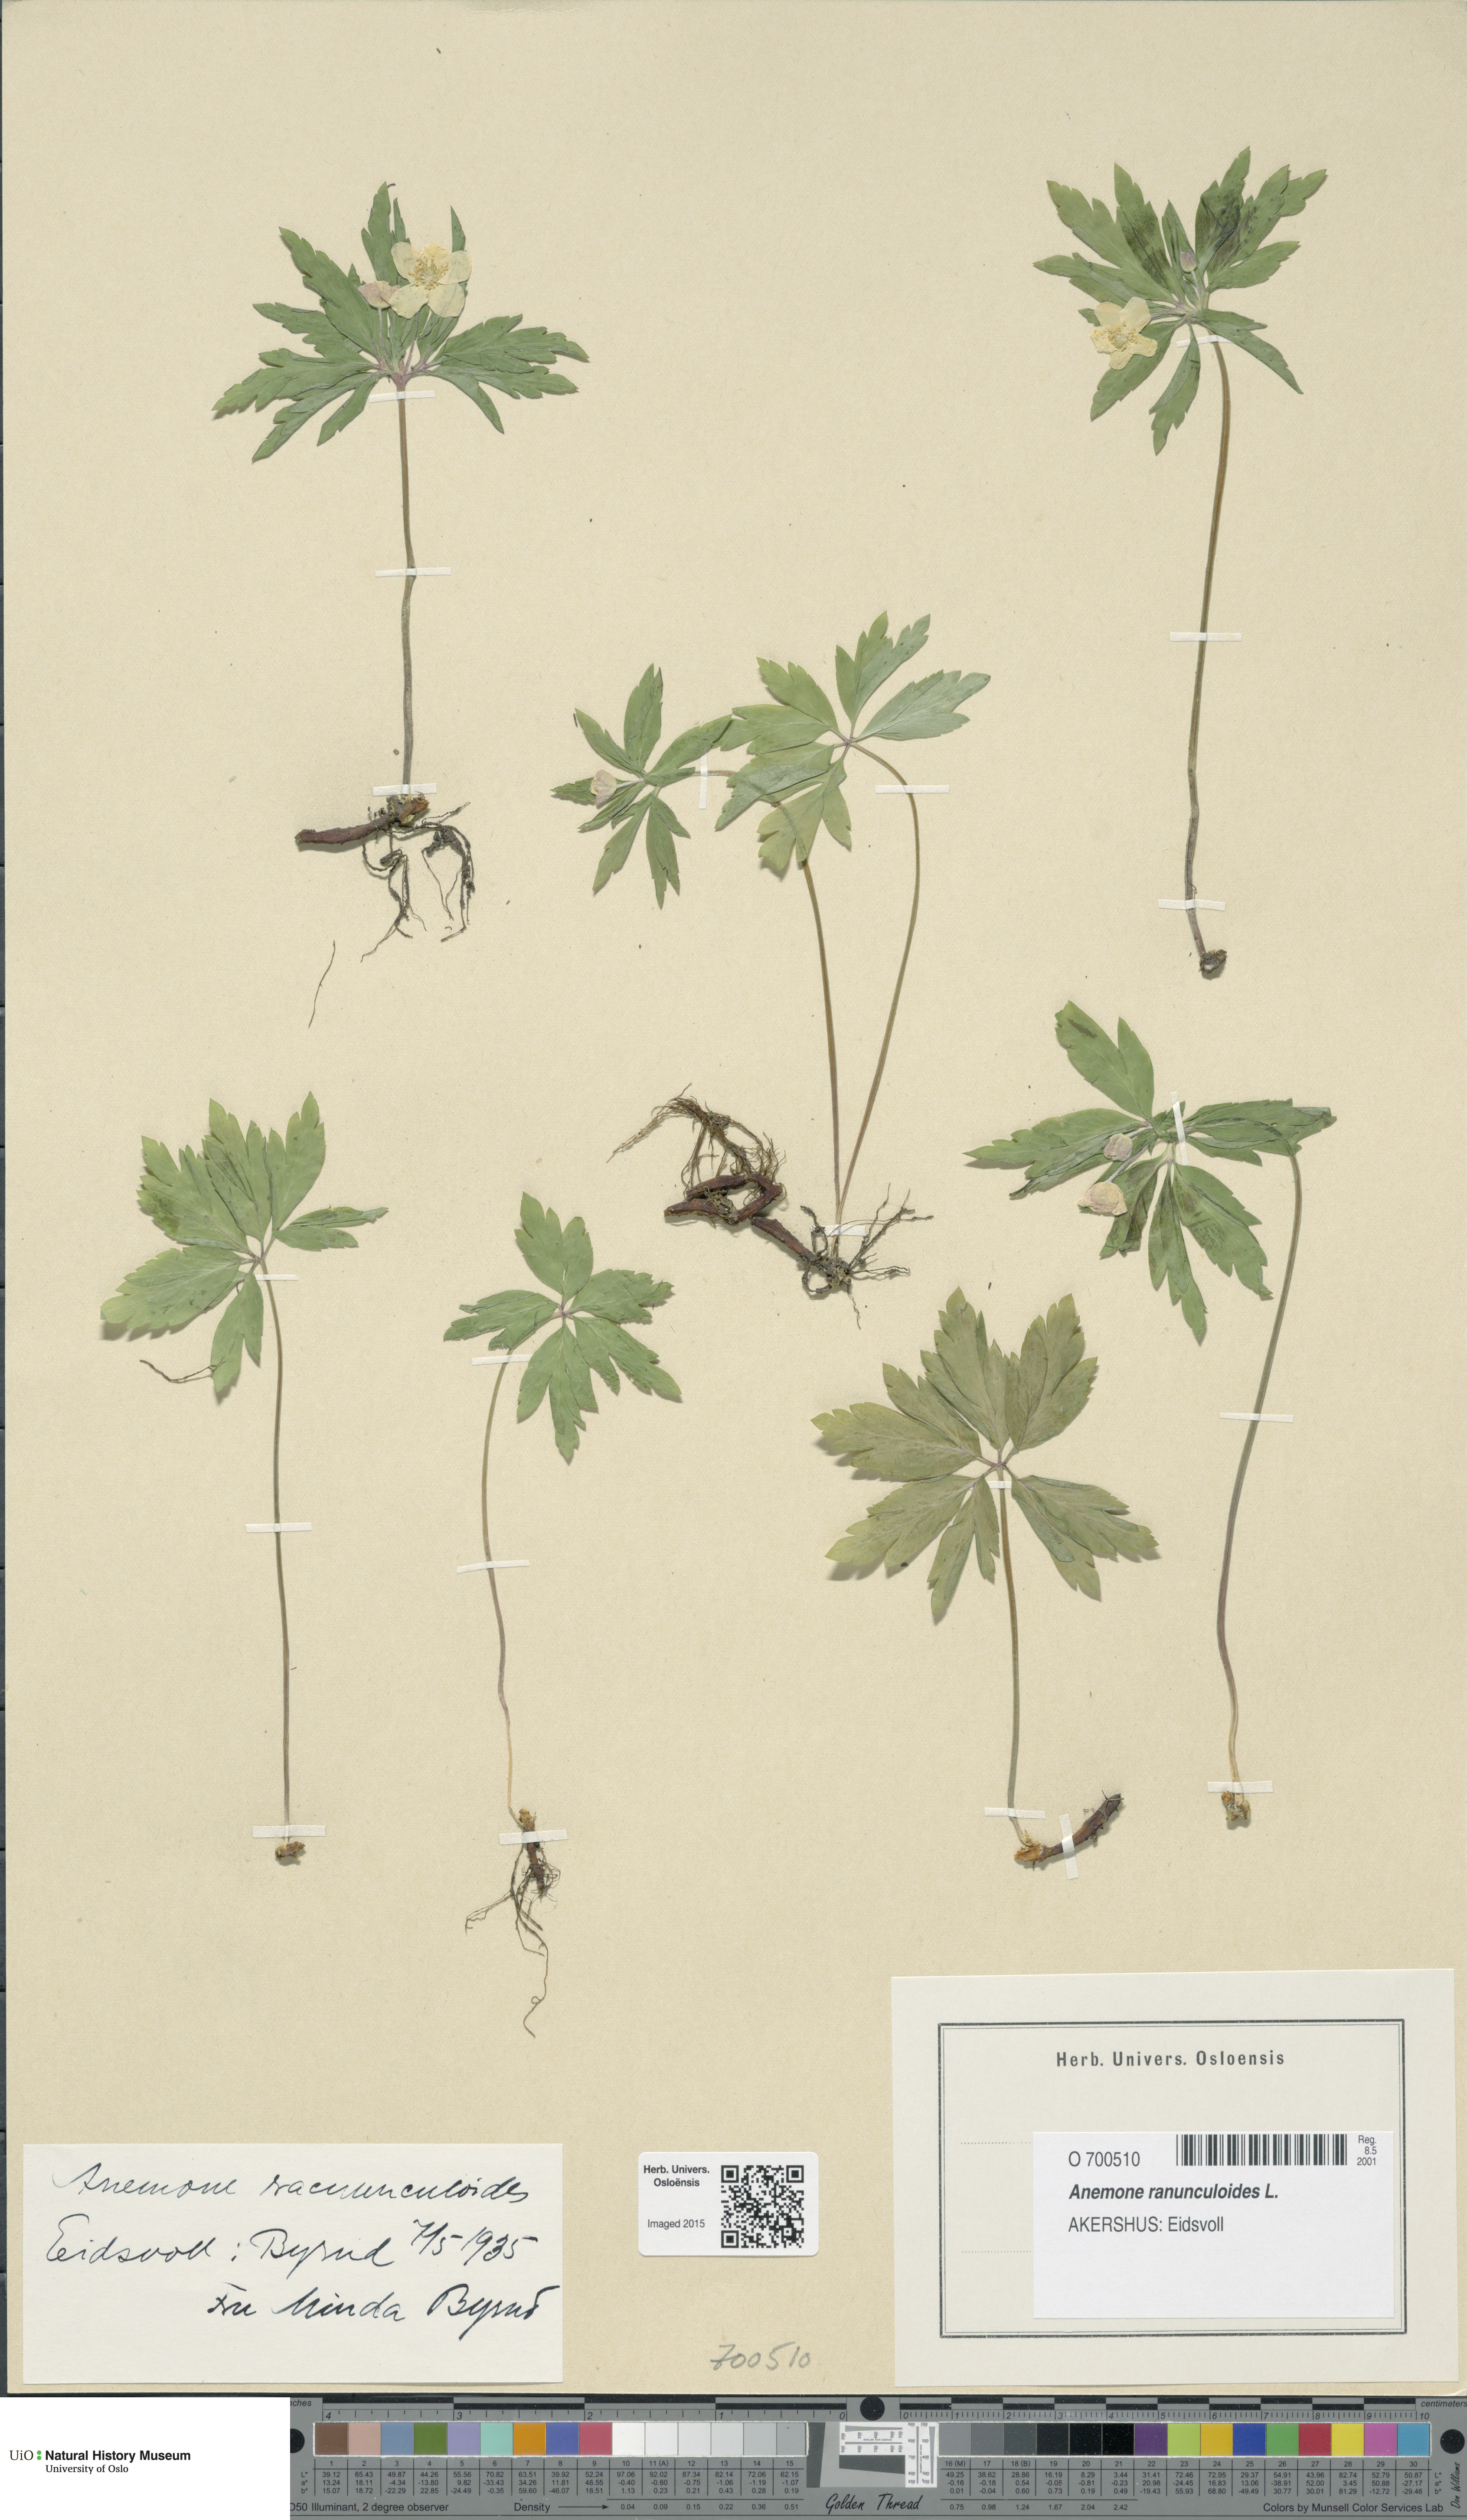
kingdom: Plantae
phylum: Tracheophyta
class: Magnoliopsida
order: Ranunculales
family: Ranunculaceae
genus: Anemone
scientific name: Anemone ranunculoides
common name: Yellow anemone
